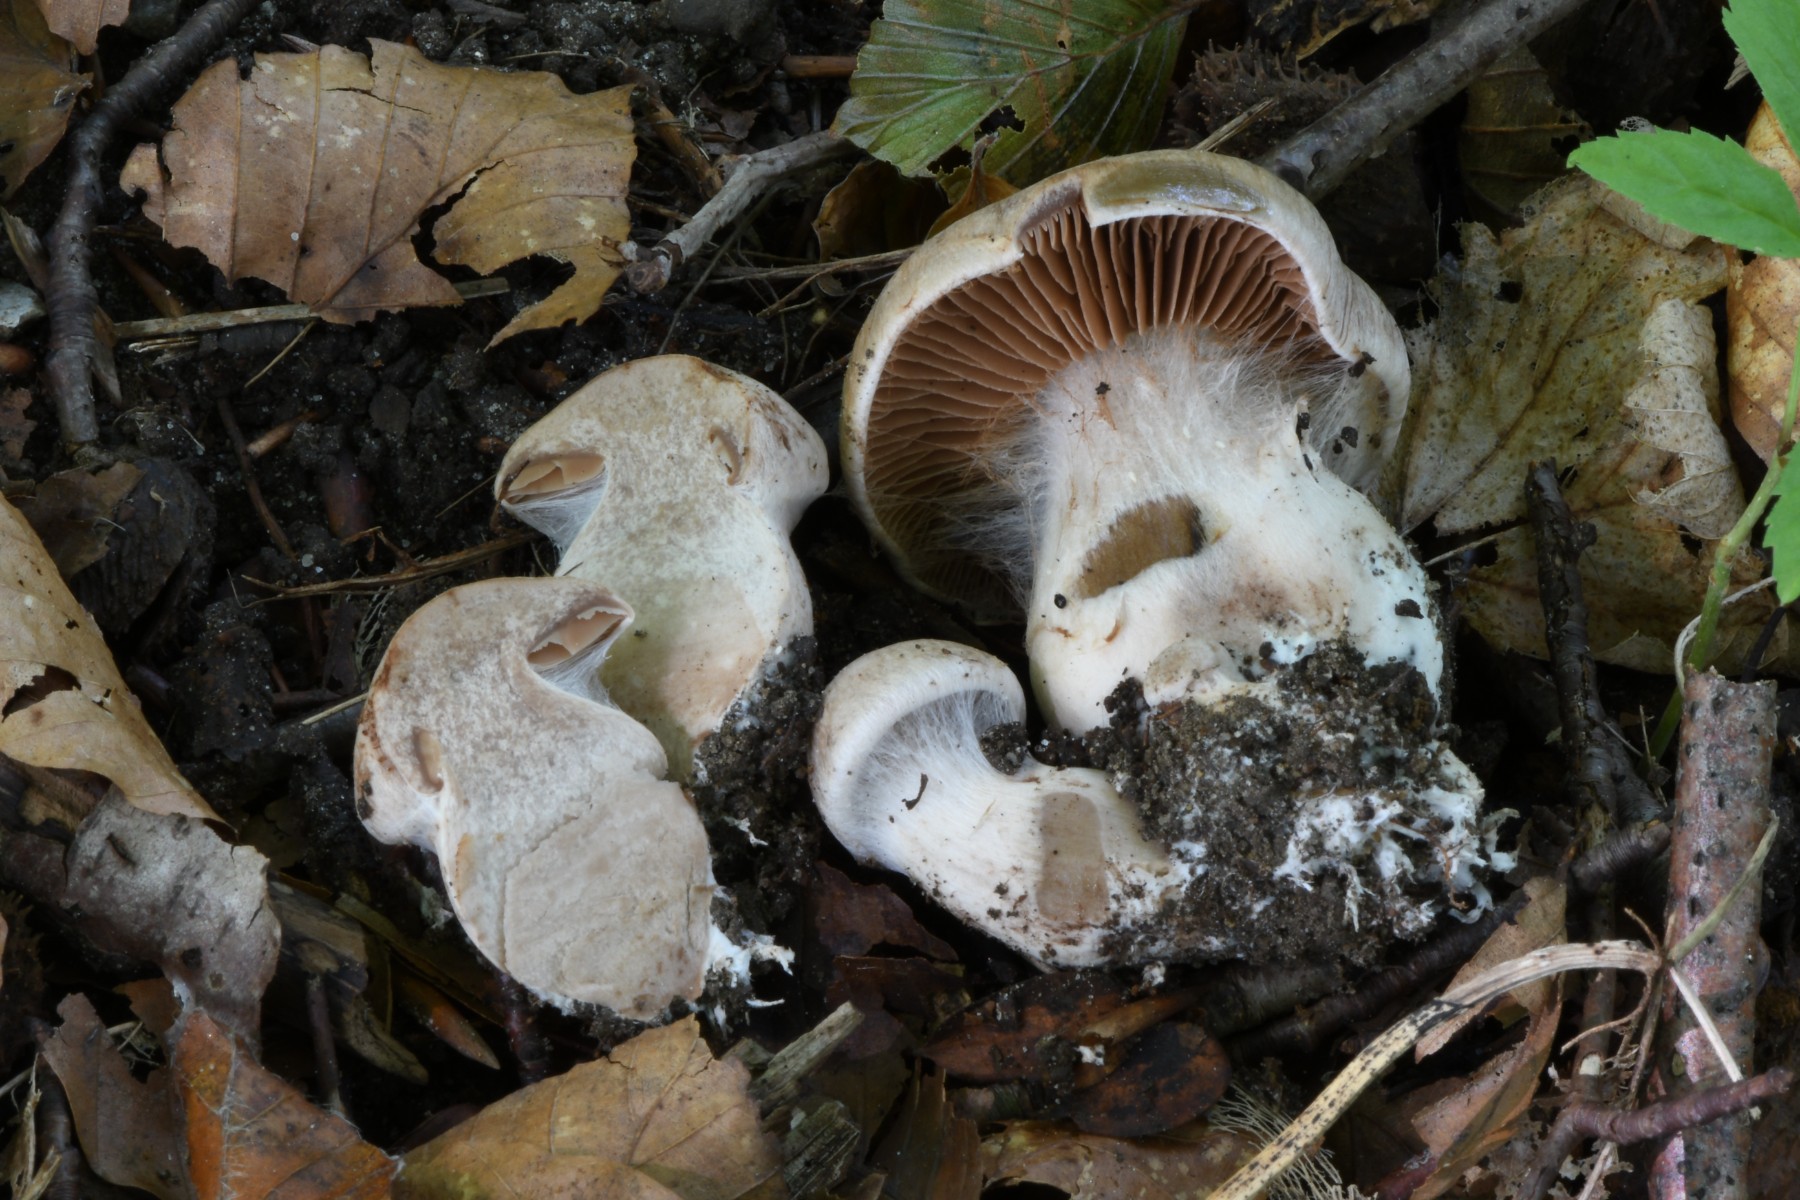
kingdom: Fungi
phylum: Basidiomycota
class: Agaricomycetes
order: Agaricales
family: Cortinariaceae
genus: Cortinarius
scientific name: Cortinarius sociatus
